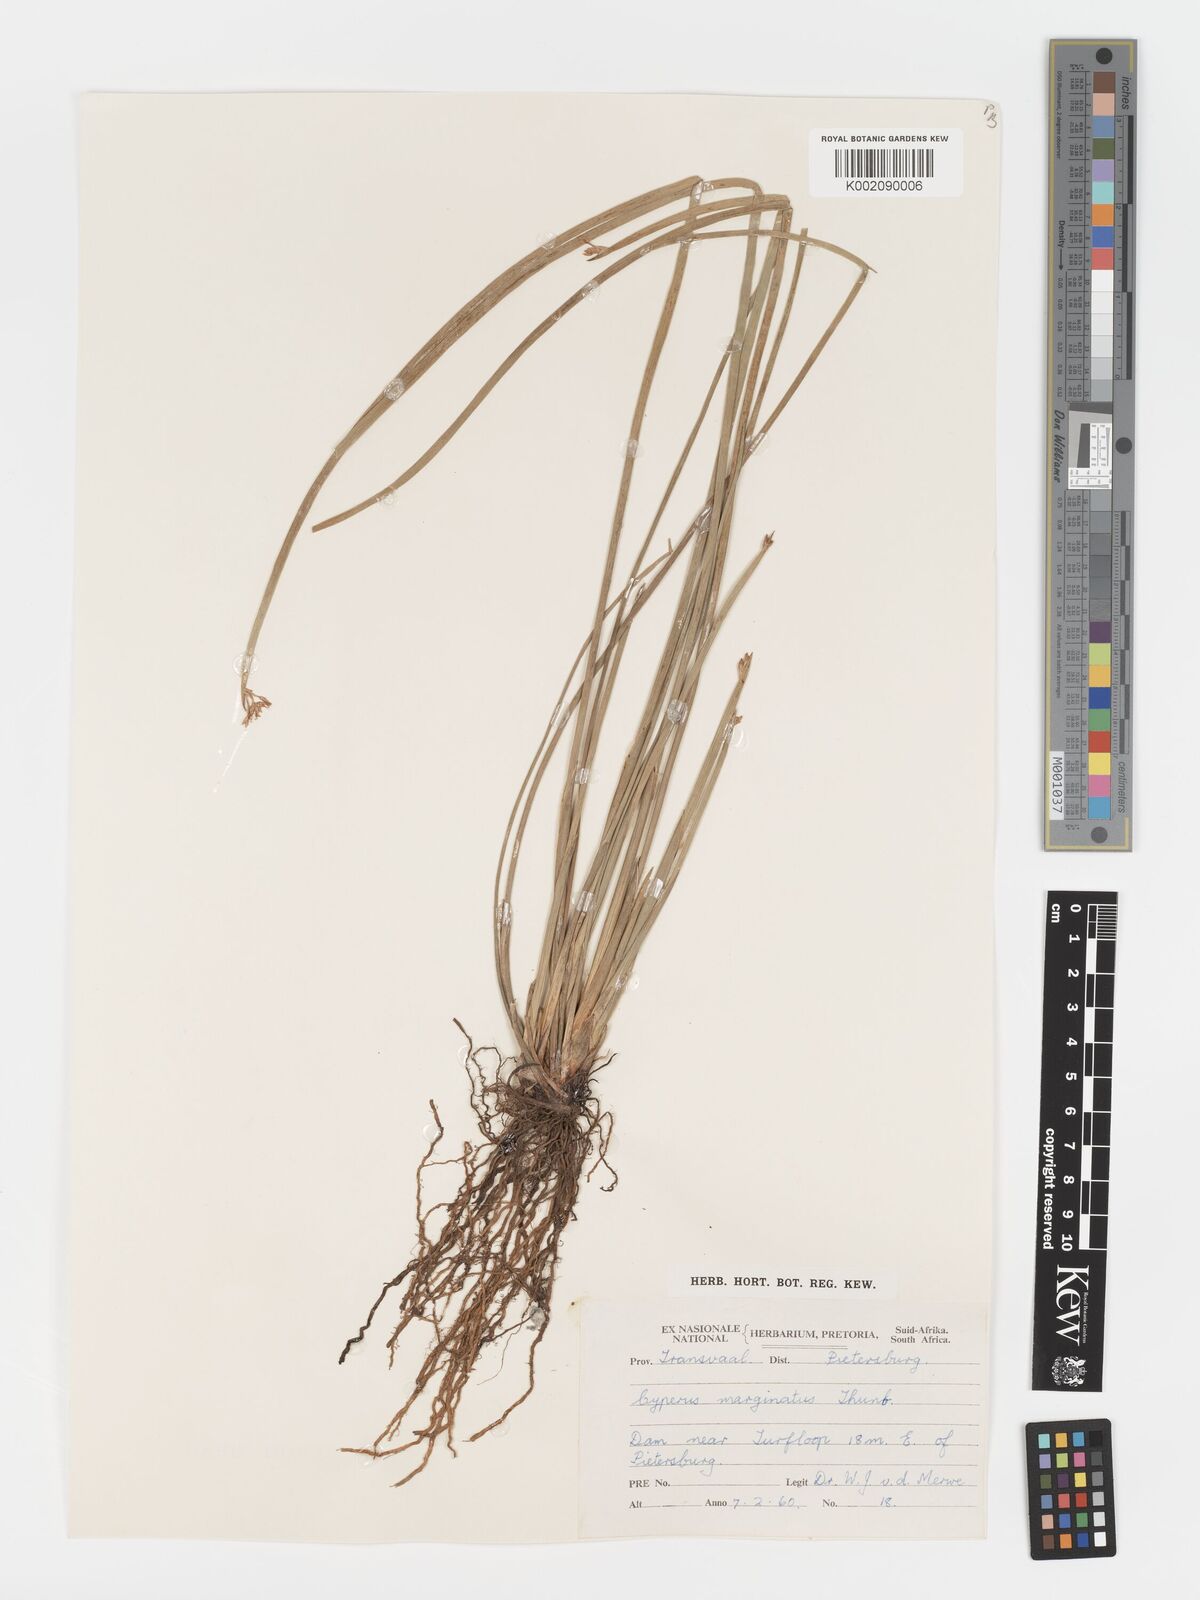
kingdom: Plantae
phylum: Tracheophyta
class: Liliopsida
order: Poales
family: Cyperaceae
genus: Cyperus
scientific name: Cyperus marginatus
